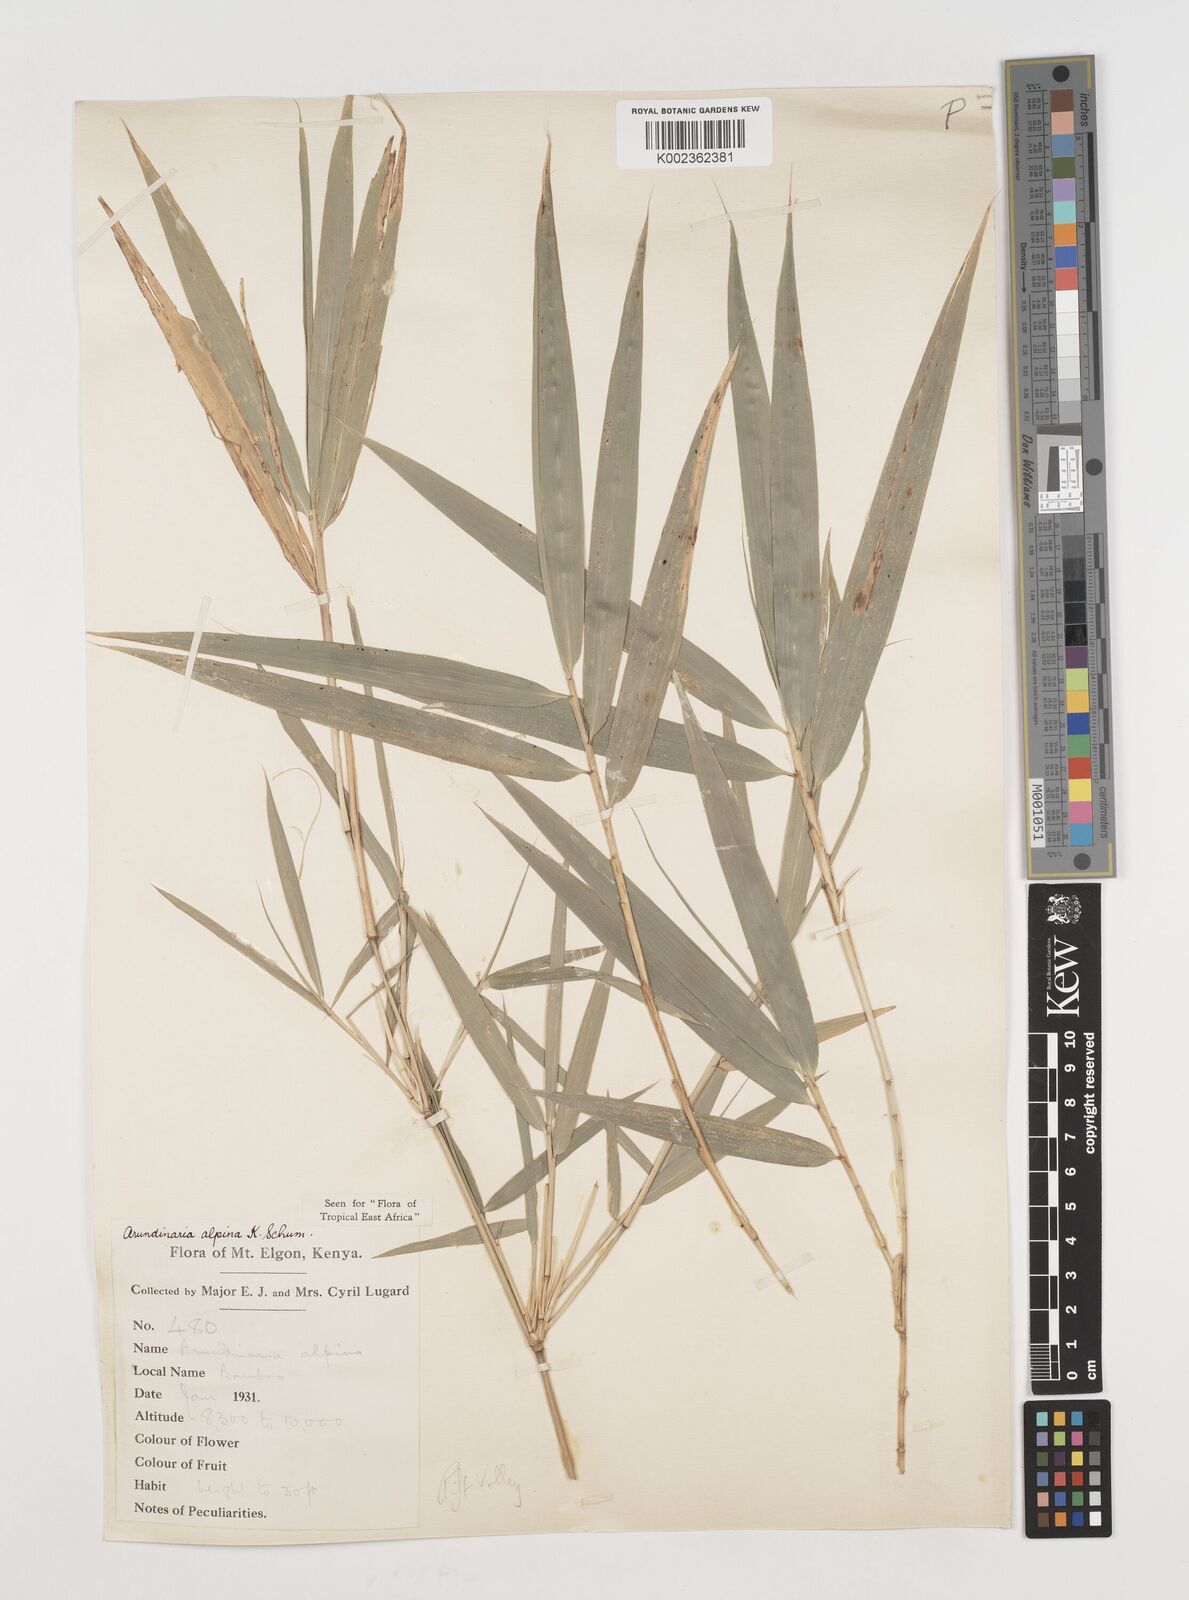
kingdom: Plantae
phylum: Tracheophyta
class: Liliopsida
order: Poales
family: Poaceae
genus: Oldeania
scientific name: Oldeania alpina
